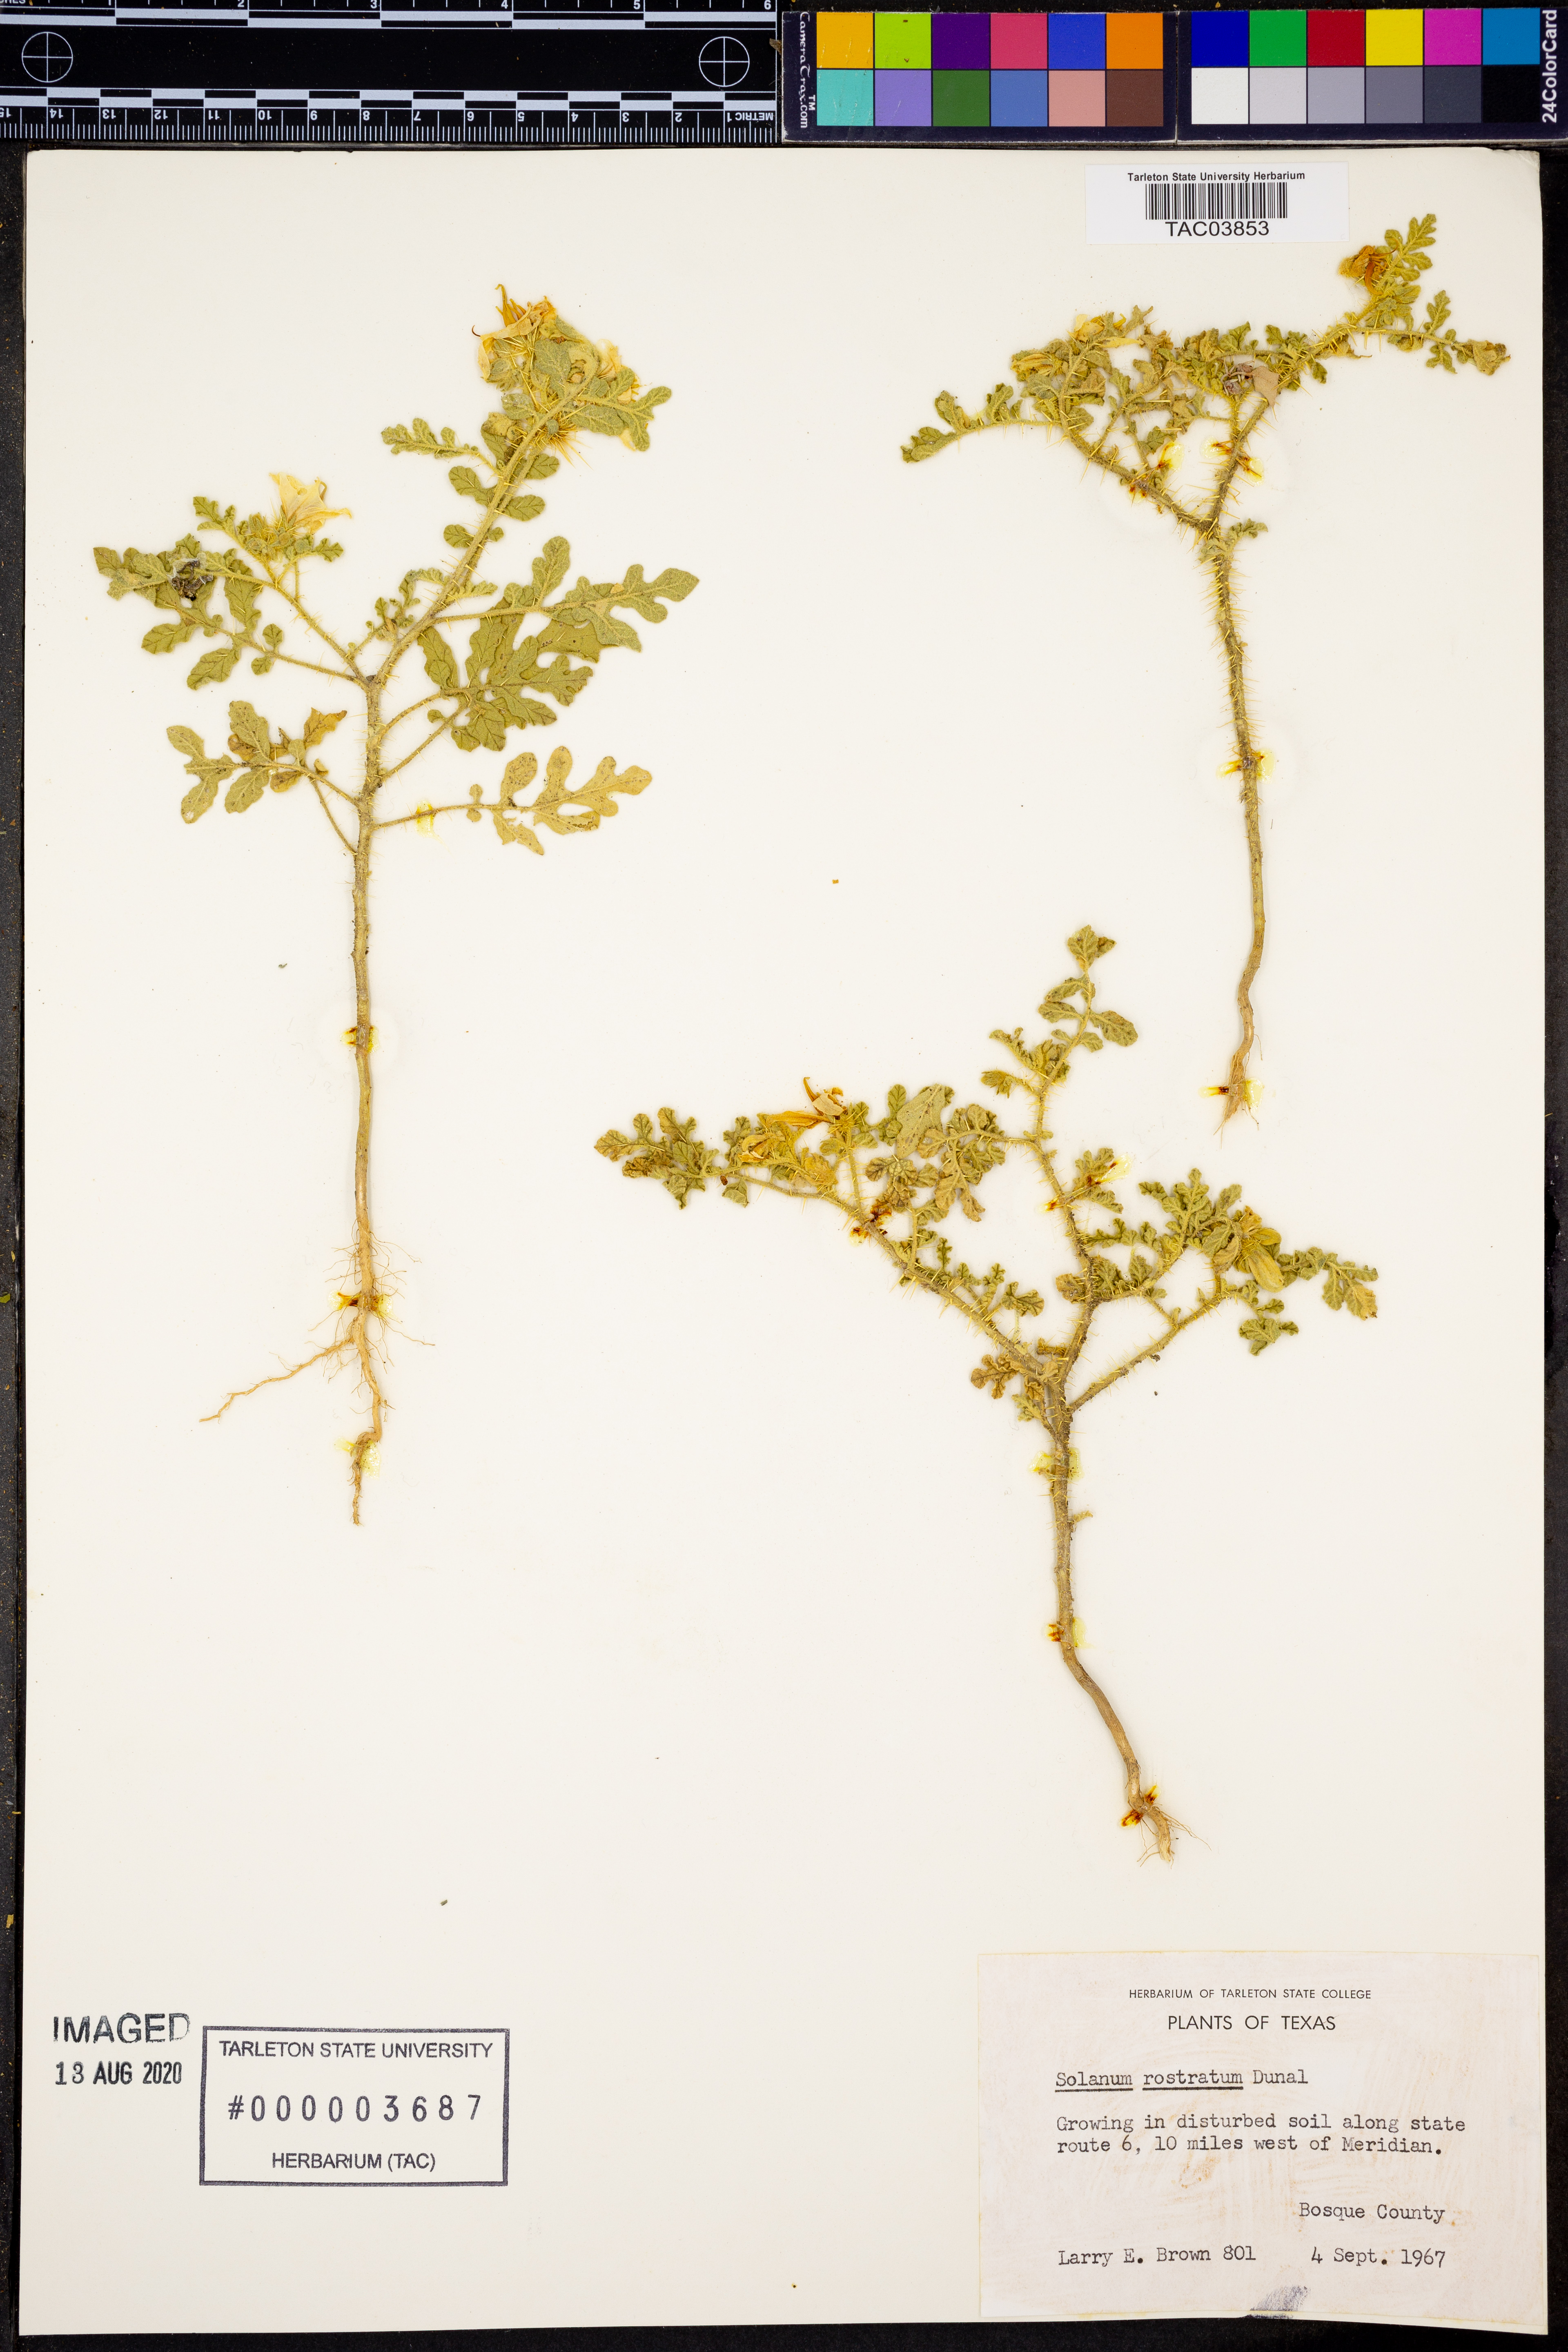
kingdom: Plantae
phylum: Tracheophyta
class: Magnoliopsida
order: Solanales
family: Solanaceae
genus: Solanum
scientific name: Solanum angustifolium
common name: Buffalobur nightshade
